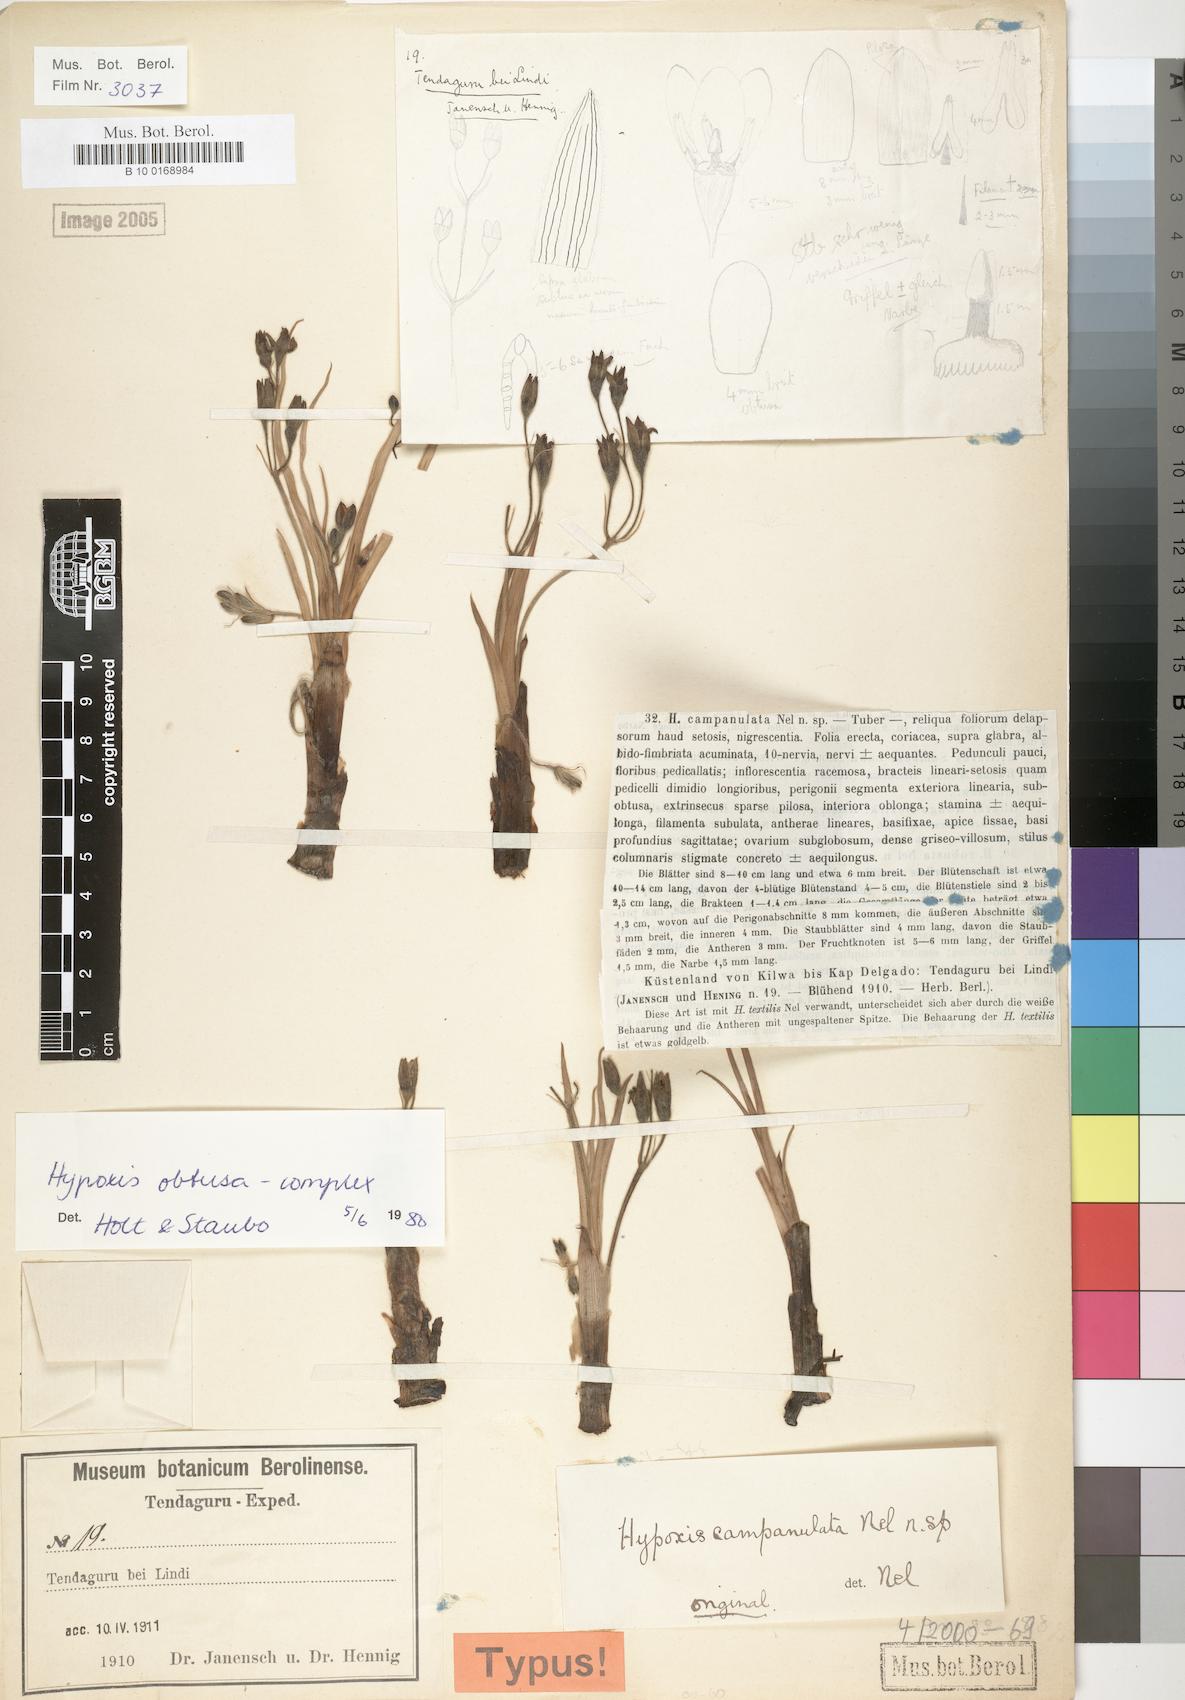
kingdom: Plantae
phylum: Tracheophyta
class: Liliopsida
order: Asparagales
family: Hypoxidaceae
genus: Hypoxis
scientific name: Hypoxis
